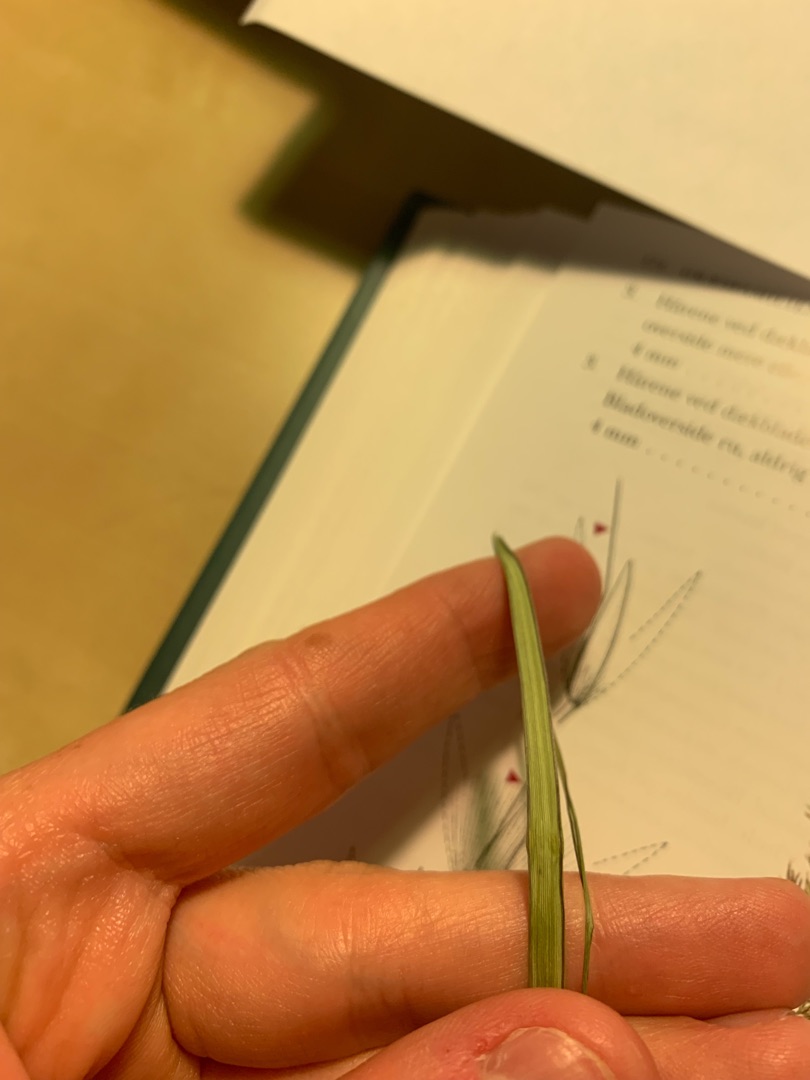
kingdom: Plantae
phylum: Tracheophyta
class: Liliopsida
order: Poales
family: Poaceae
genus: Calamagrostis
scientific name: Calamagrostis epigejos
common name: Bjerg-rørhvene
